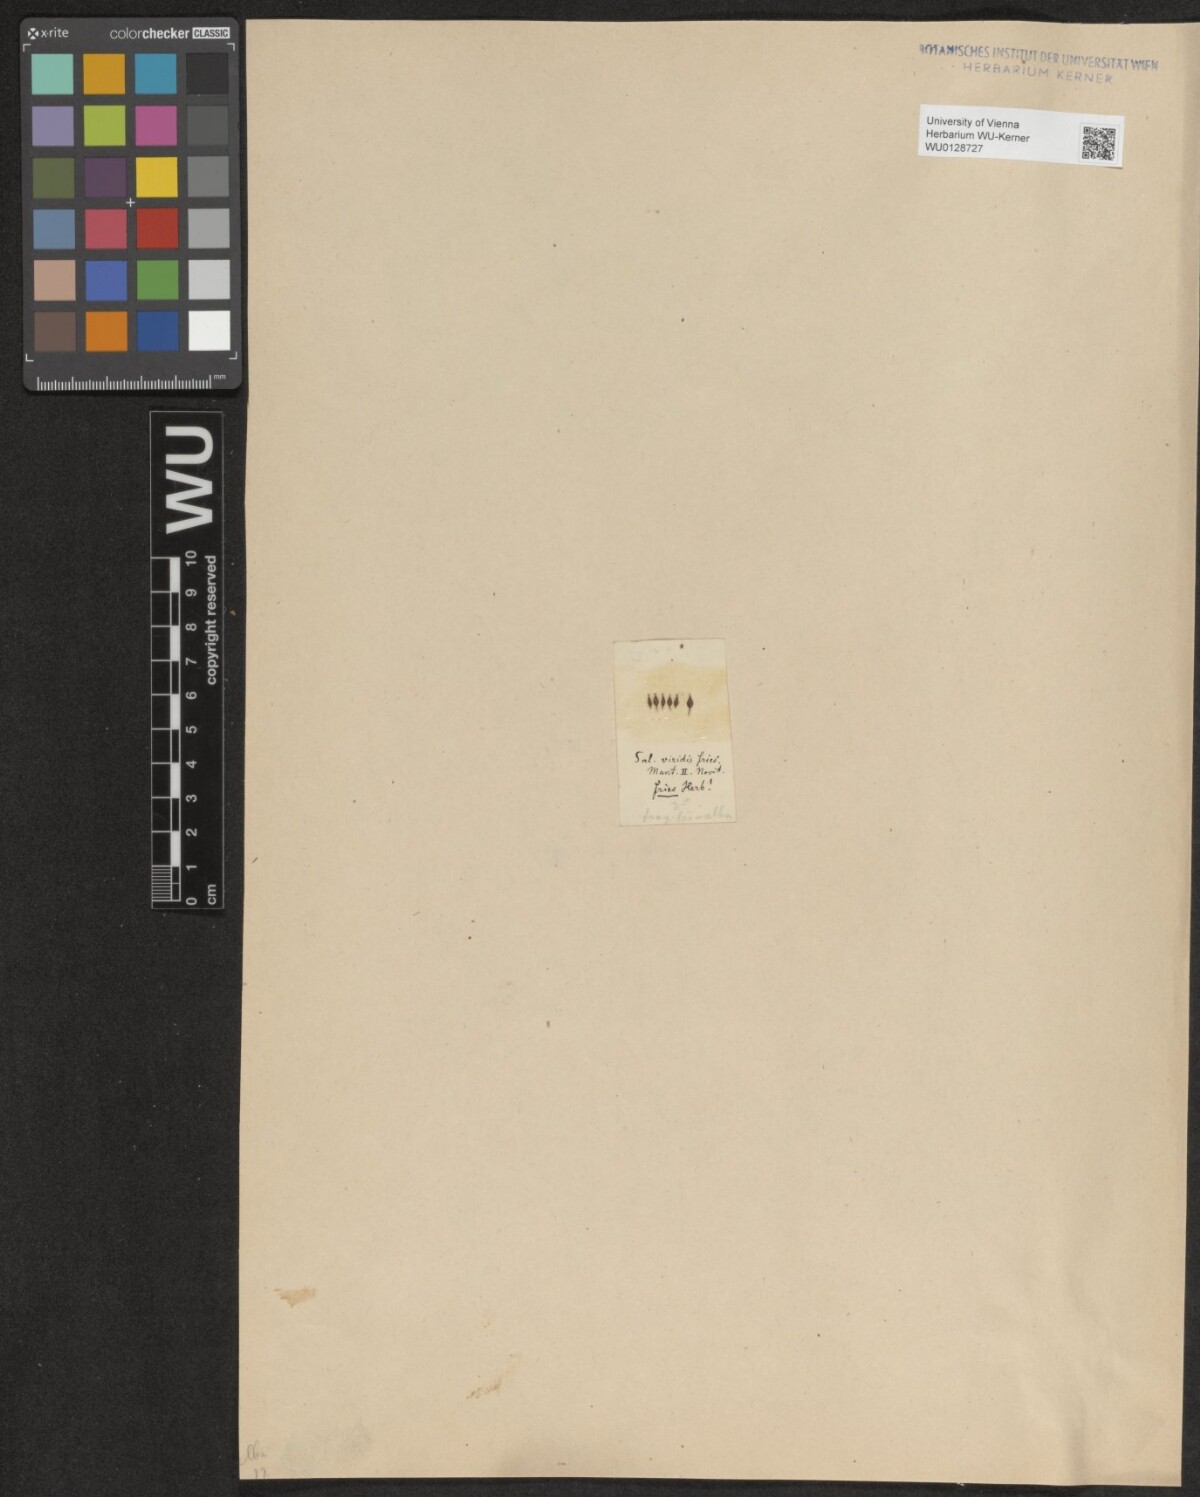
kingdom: Plantae
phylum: Tracheophyta
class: Magnoliopsida
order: Malpighiales
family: Salicaceae
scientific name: Salicaceae
